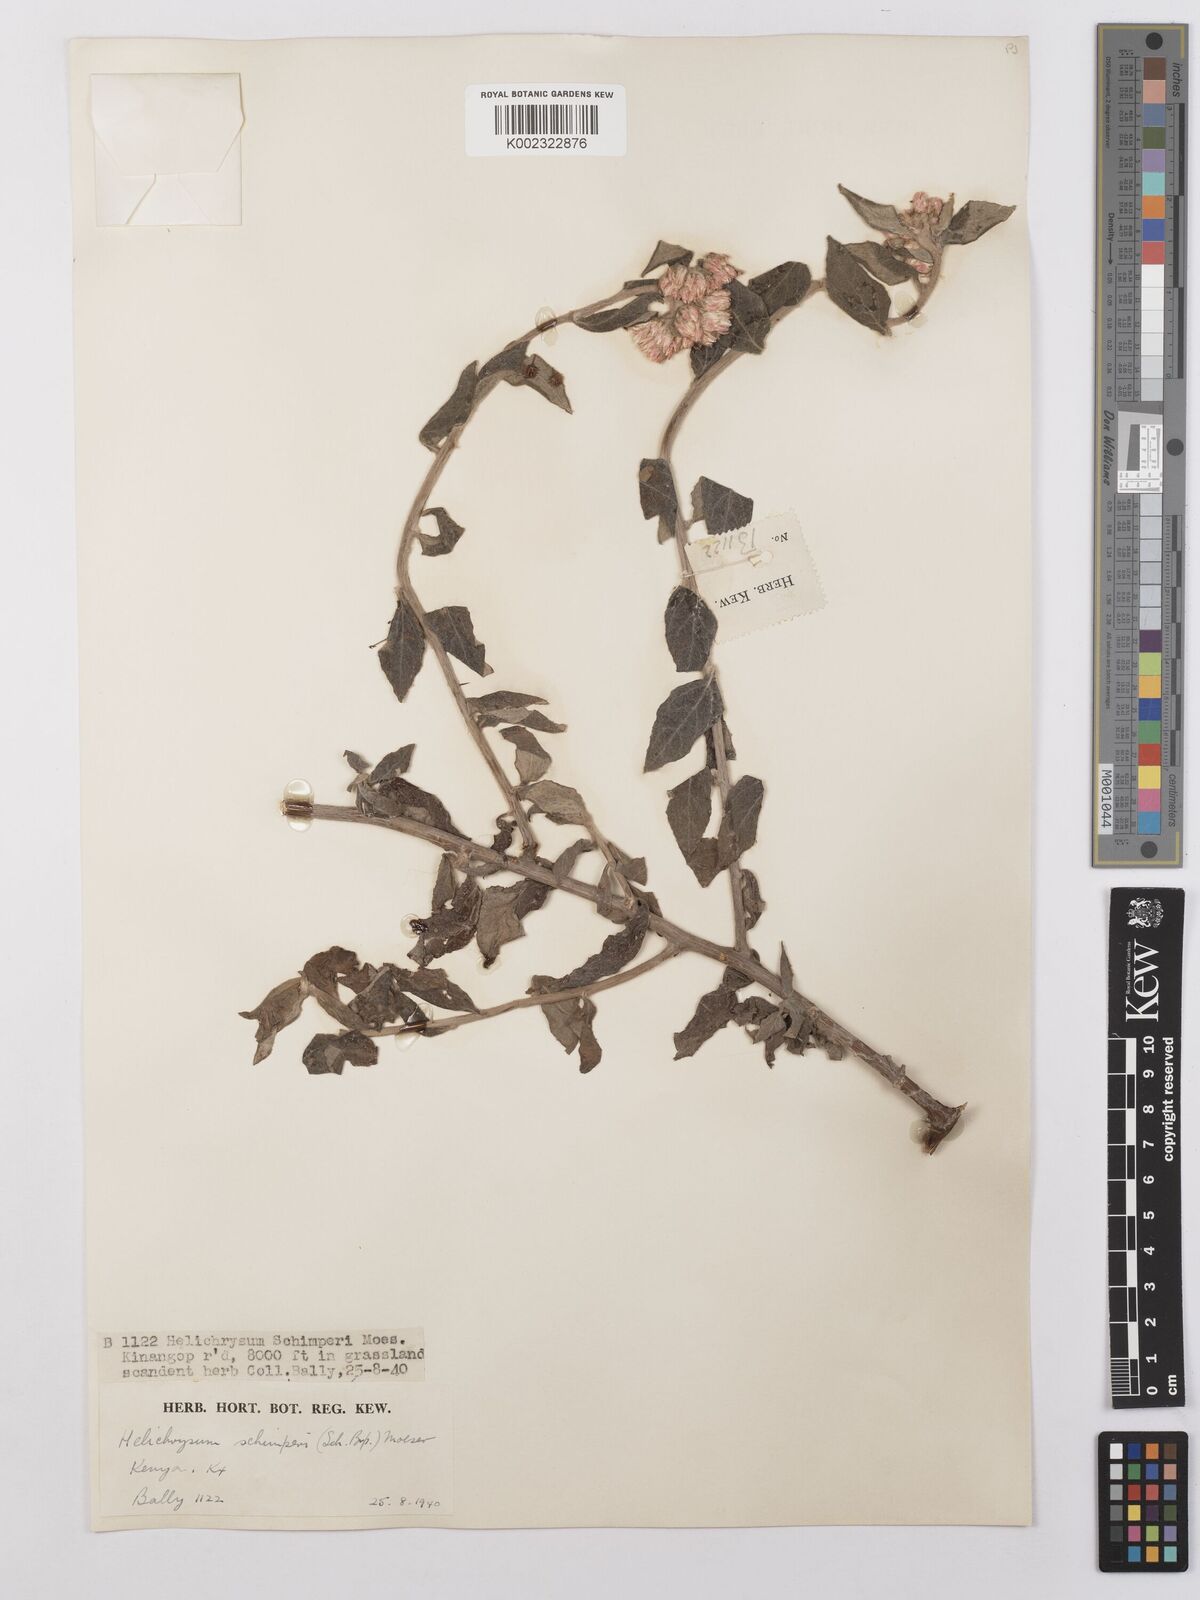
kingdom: Plantae
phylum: Tracheophyta
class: Magnoliopsida
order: Asterales
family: Asteraceae
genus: Helichrysum
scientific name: Helichrysum schimperi
